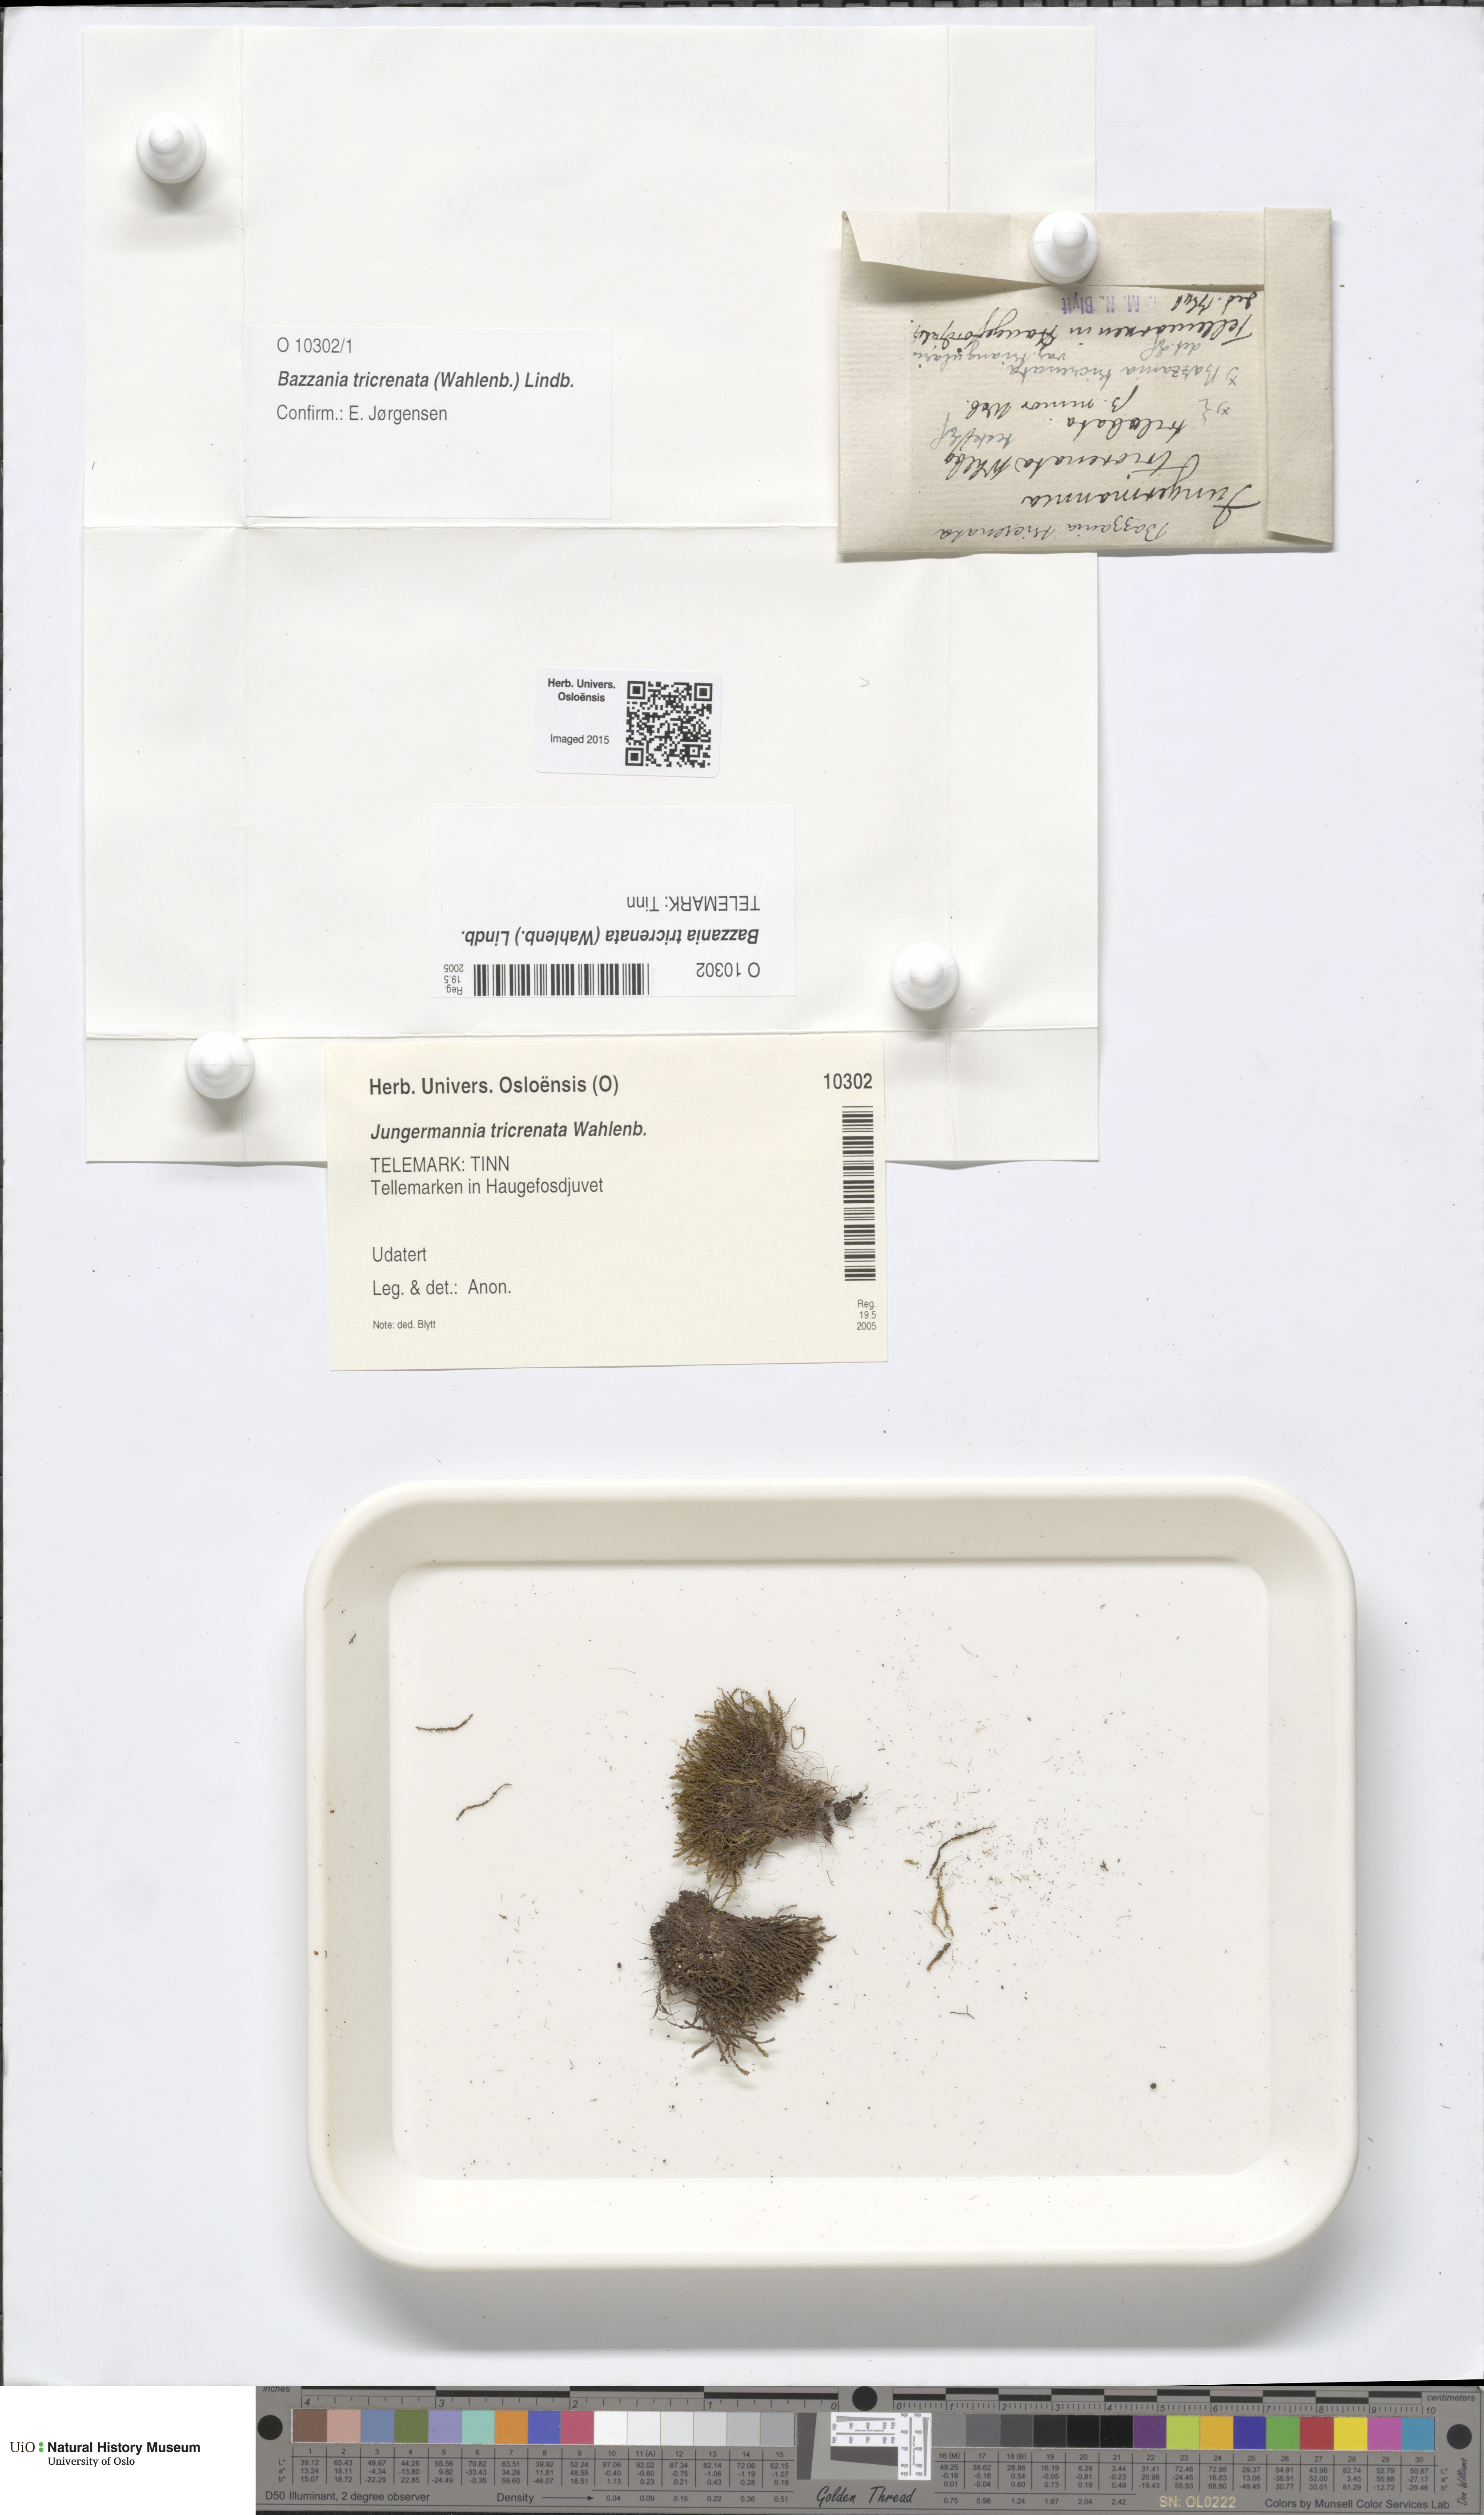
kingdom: Plantae
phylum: Marchantiophyta
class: Jungermanniopsida
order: Jungermanniales
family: Lepidoziaceae
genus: Bazzania
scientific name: Bazzania tricrenata
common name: Lesser whipwort
